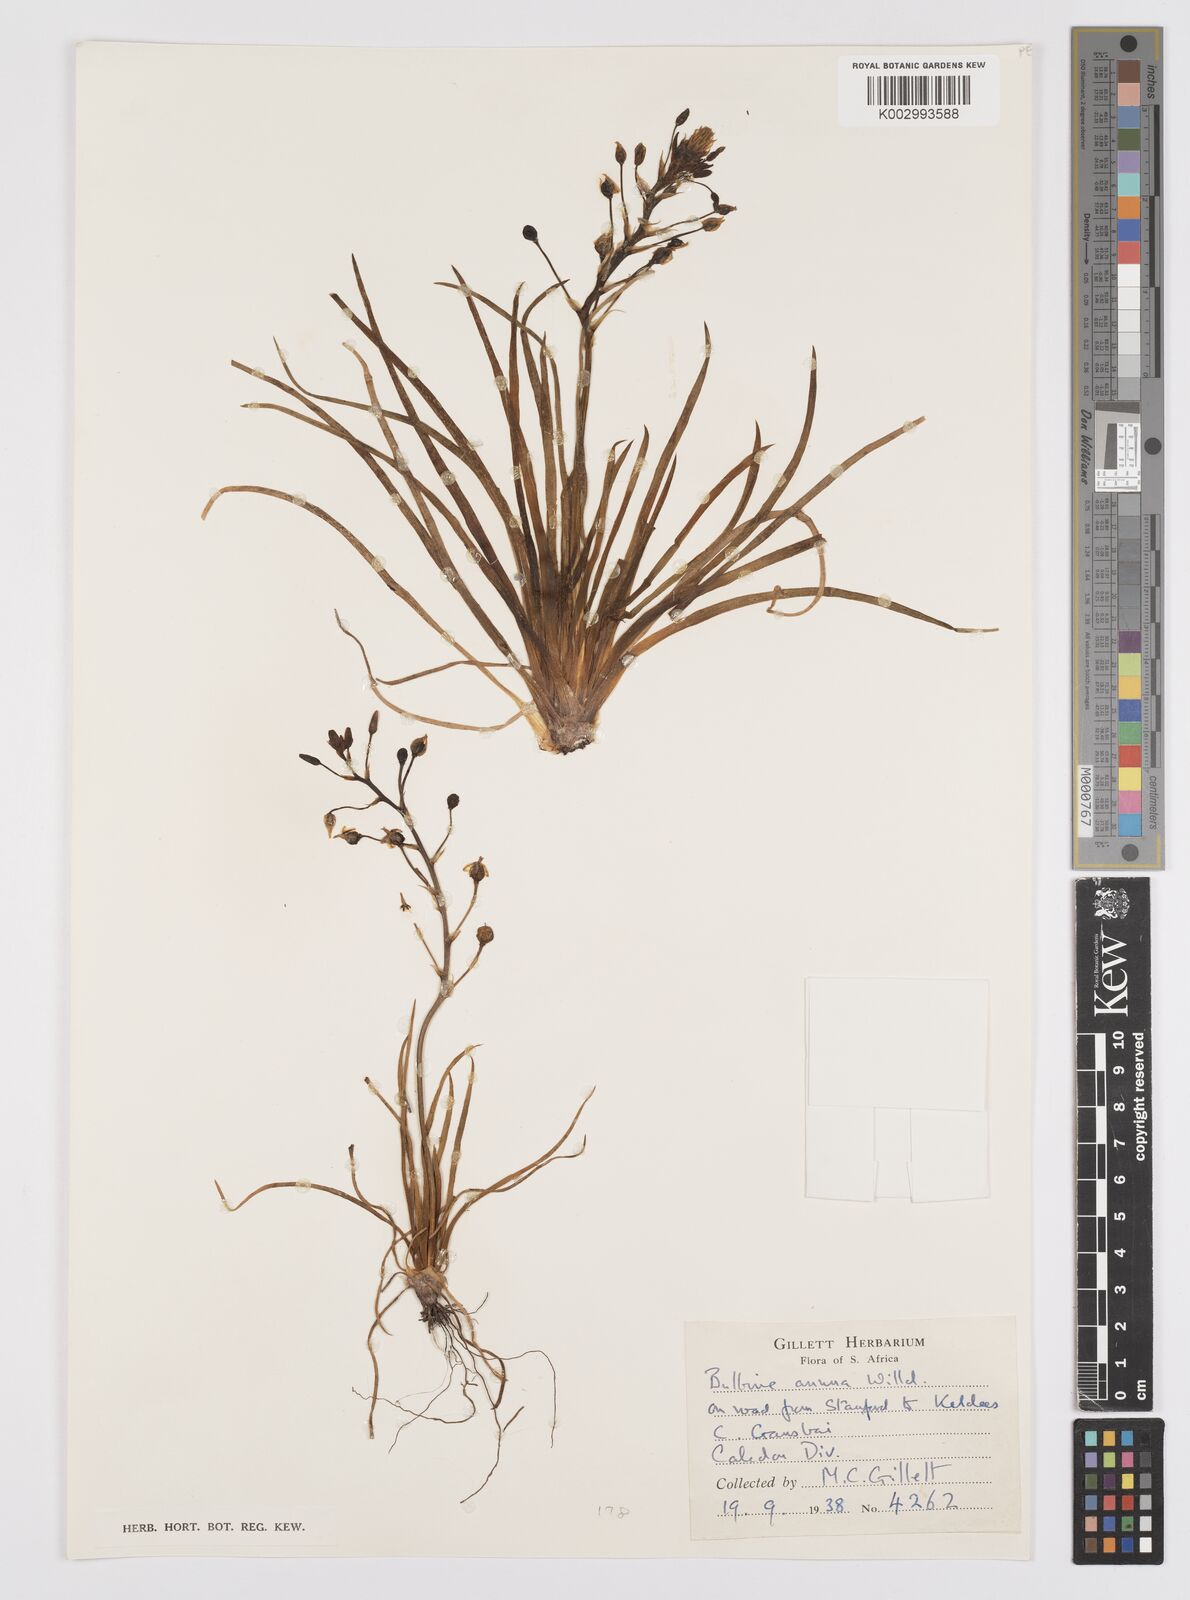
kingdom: Plantae
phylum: Tracheophyta
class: Liliopsida
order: Asparagales
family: Asphodelaceae
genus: Bulbine
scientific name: Bulbine annua
